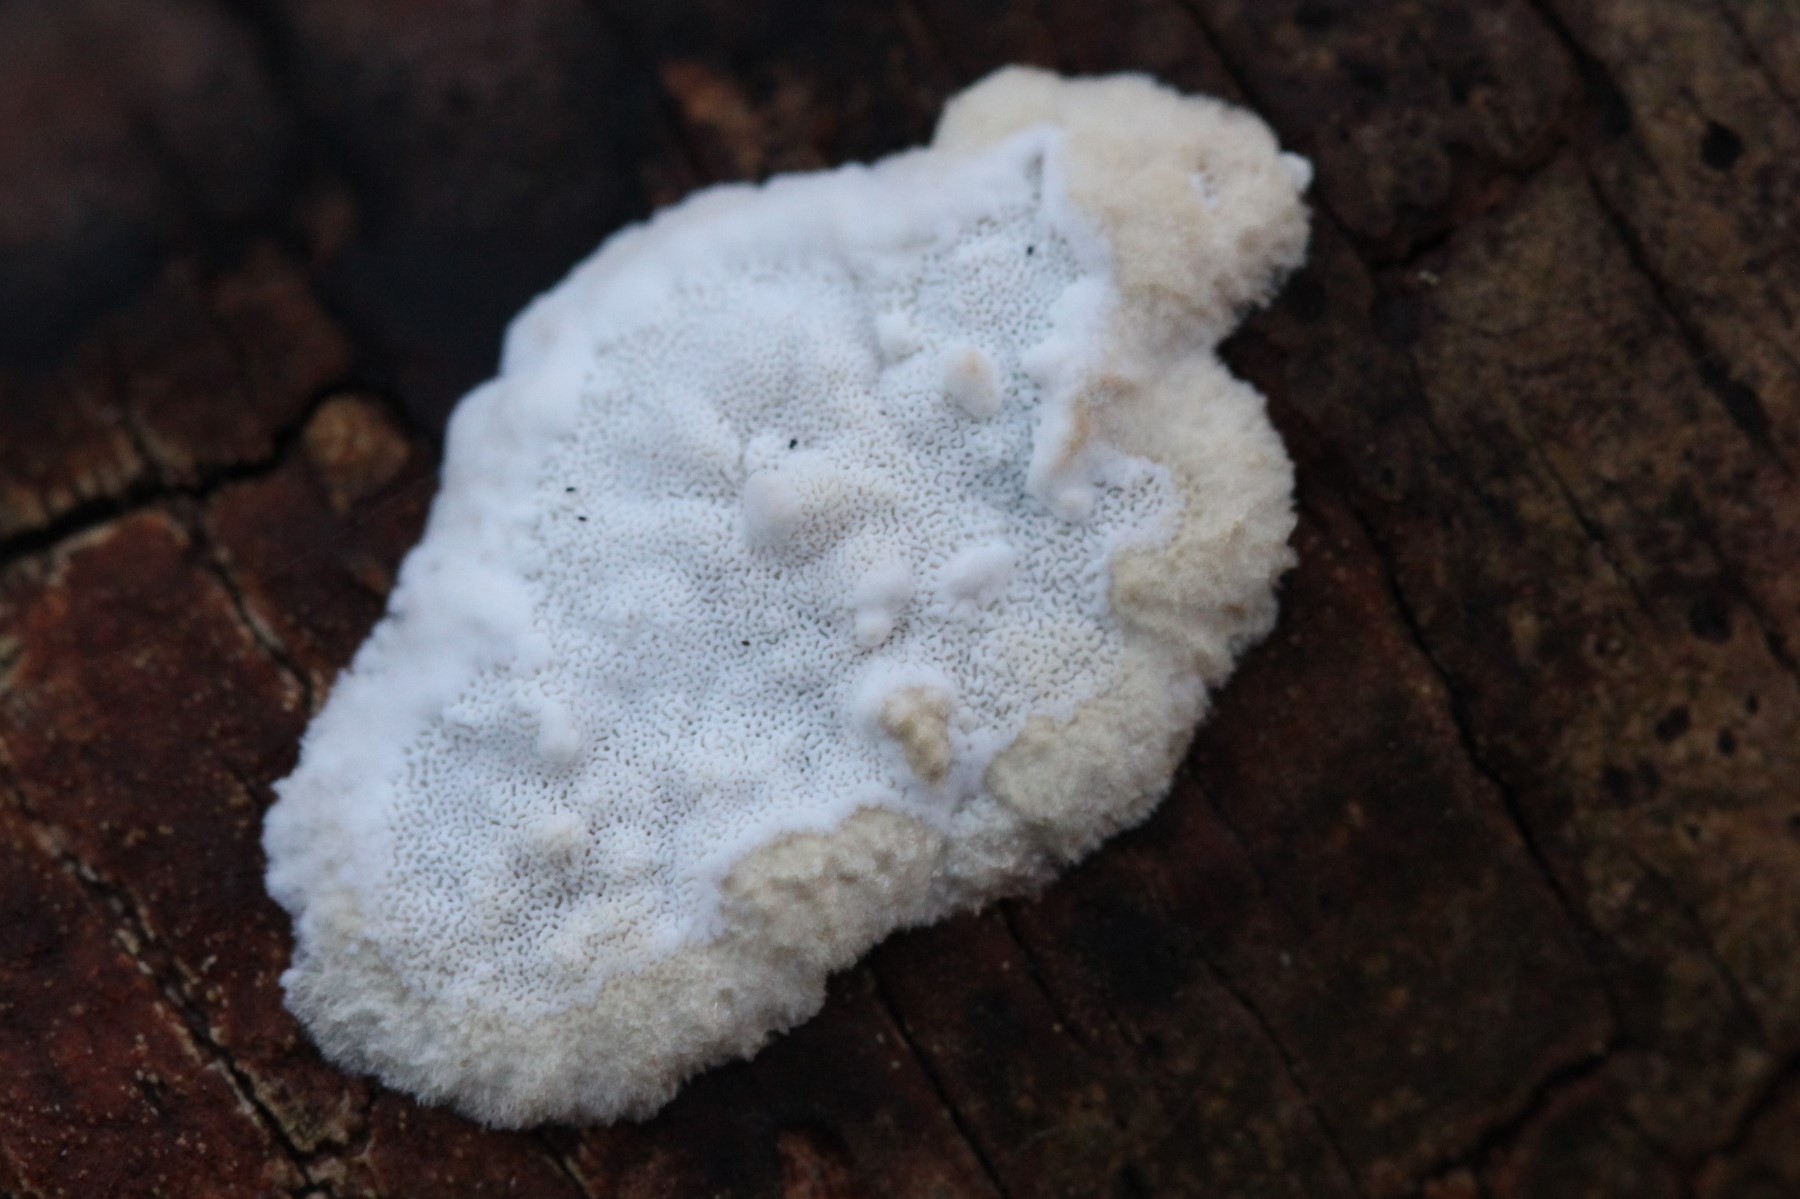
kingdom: Fungi
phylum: Basidiomycota
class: Agaricomycetes
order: Polyporales
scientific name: Polyporales
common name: poresvampordenen
